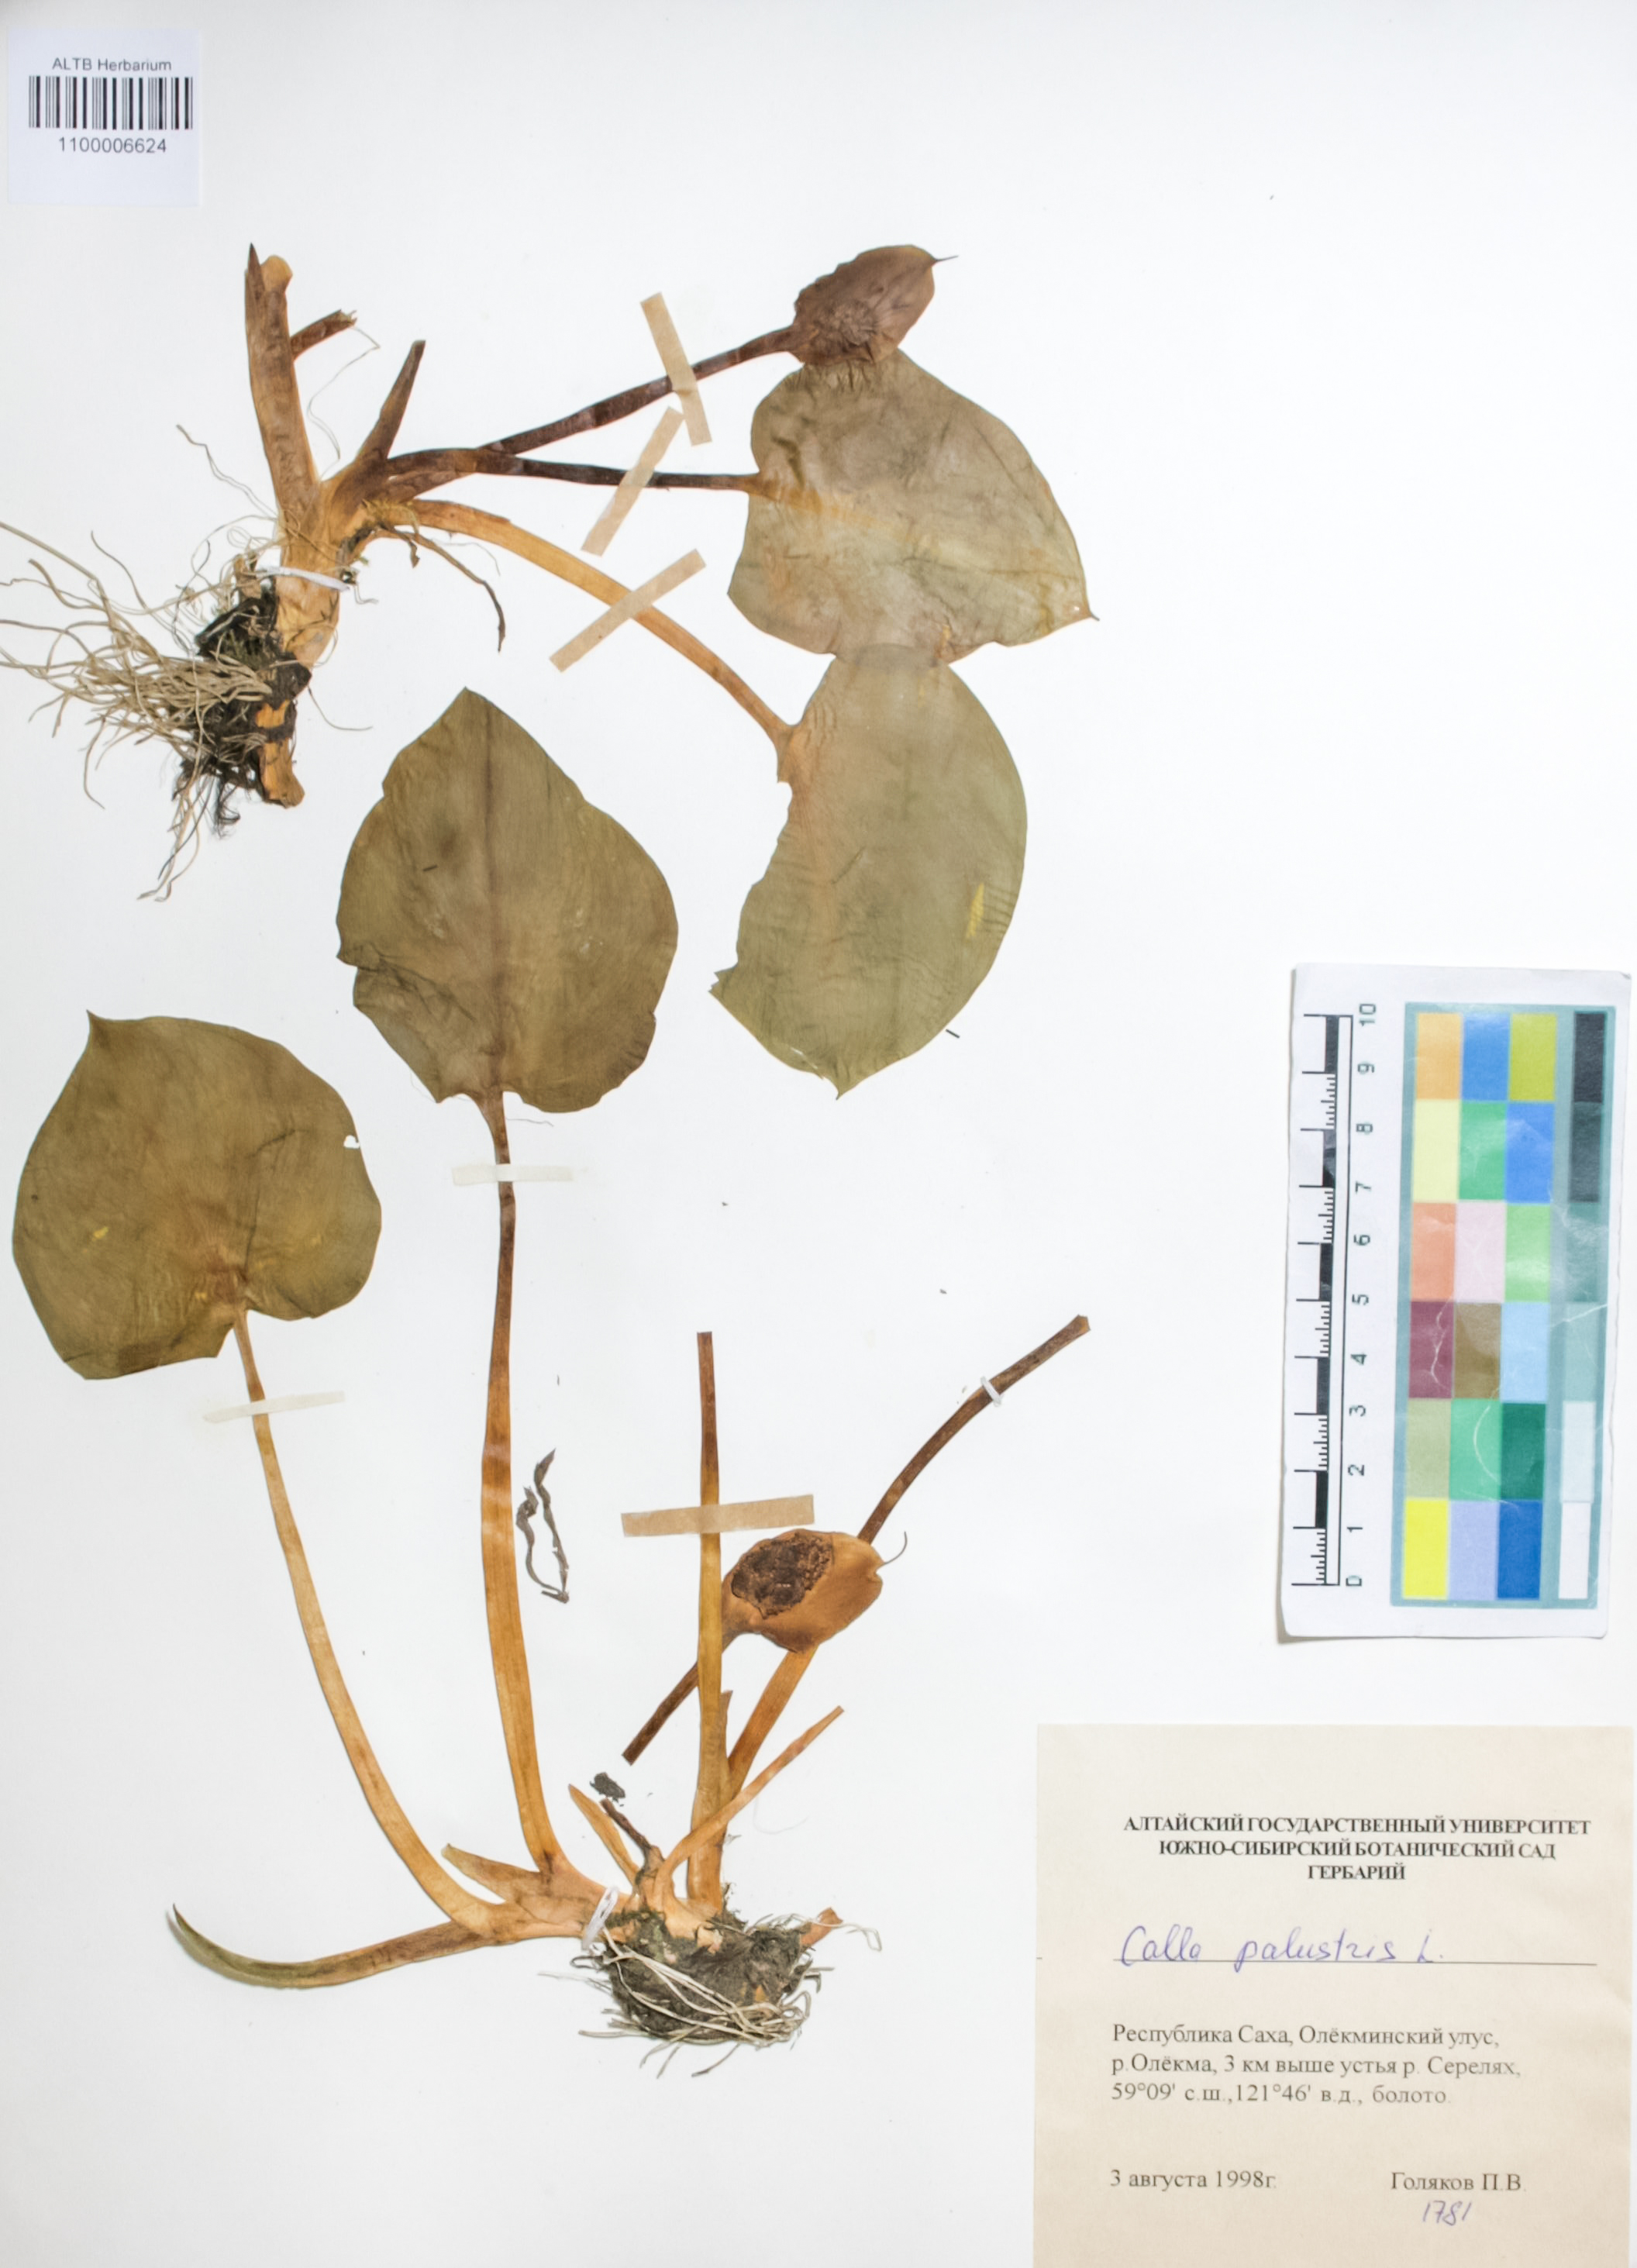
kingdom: Plantae
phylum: Tracheophyta
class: Liliopsida
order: Alismatales
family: Araceae
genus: Calla
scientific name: Calla palustris
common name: Bog arum
